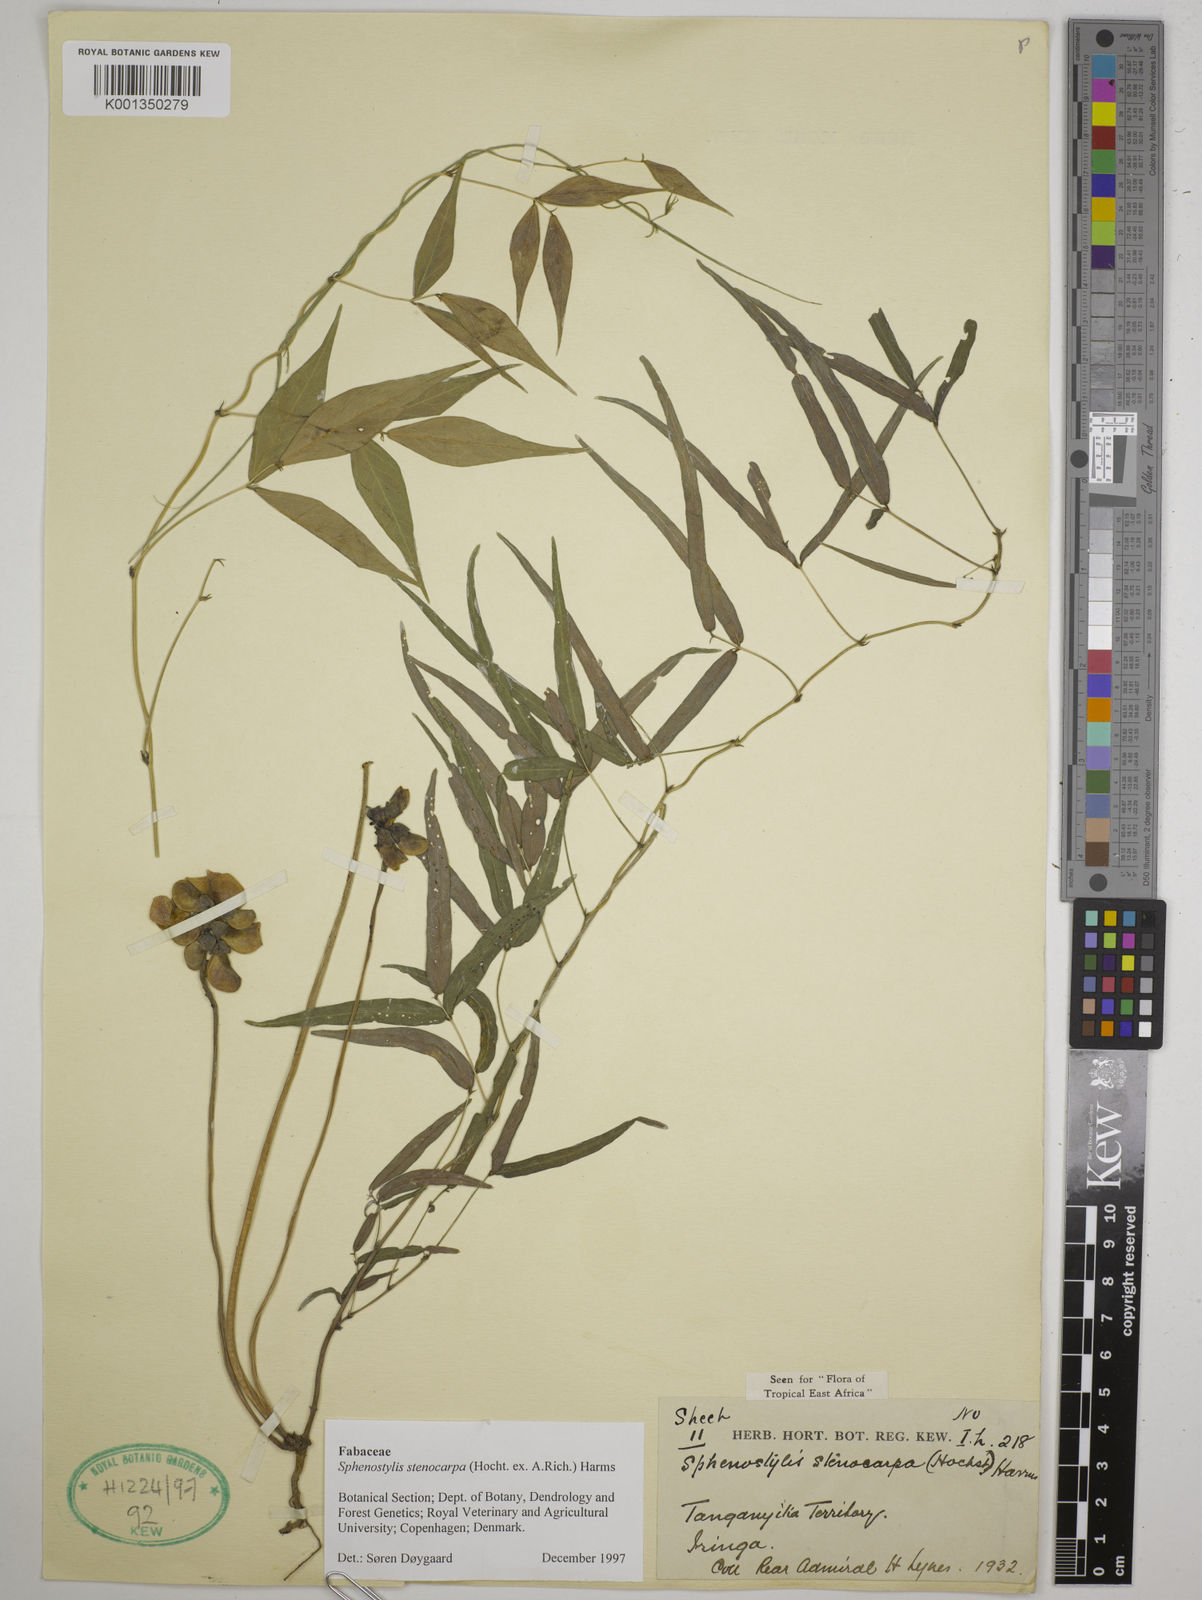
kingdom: Plantae
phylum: Tracheophyta
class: Magnoliopsida
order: Fabales
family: Fabaceae
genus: Sphenostylis
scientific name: Sphenostylis stenocarpa
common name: Yam-pea
